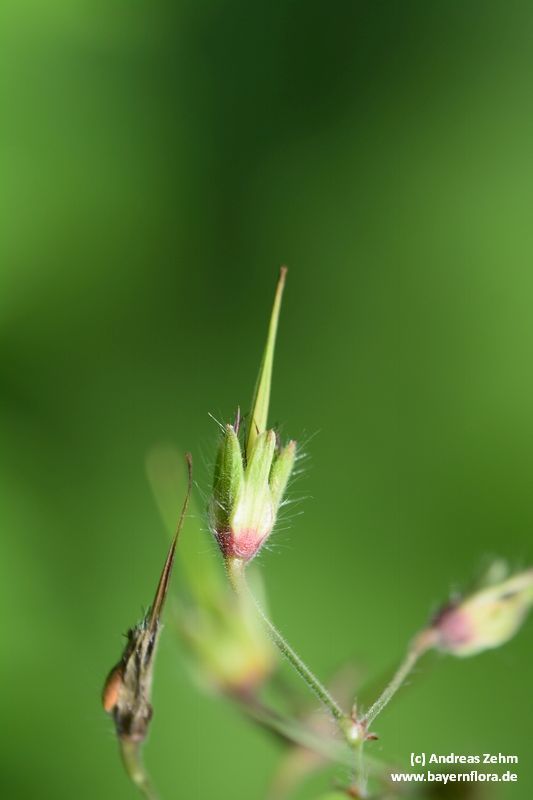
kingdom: Plantae
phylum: Tracheophyta
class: Magnoliopsida
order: Geraniales
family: Geraniaceae
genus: Geranium
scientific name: Geranium phaeum
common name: Dusky crane's-bill
